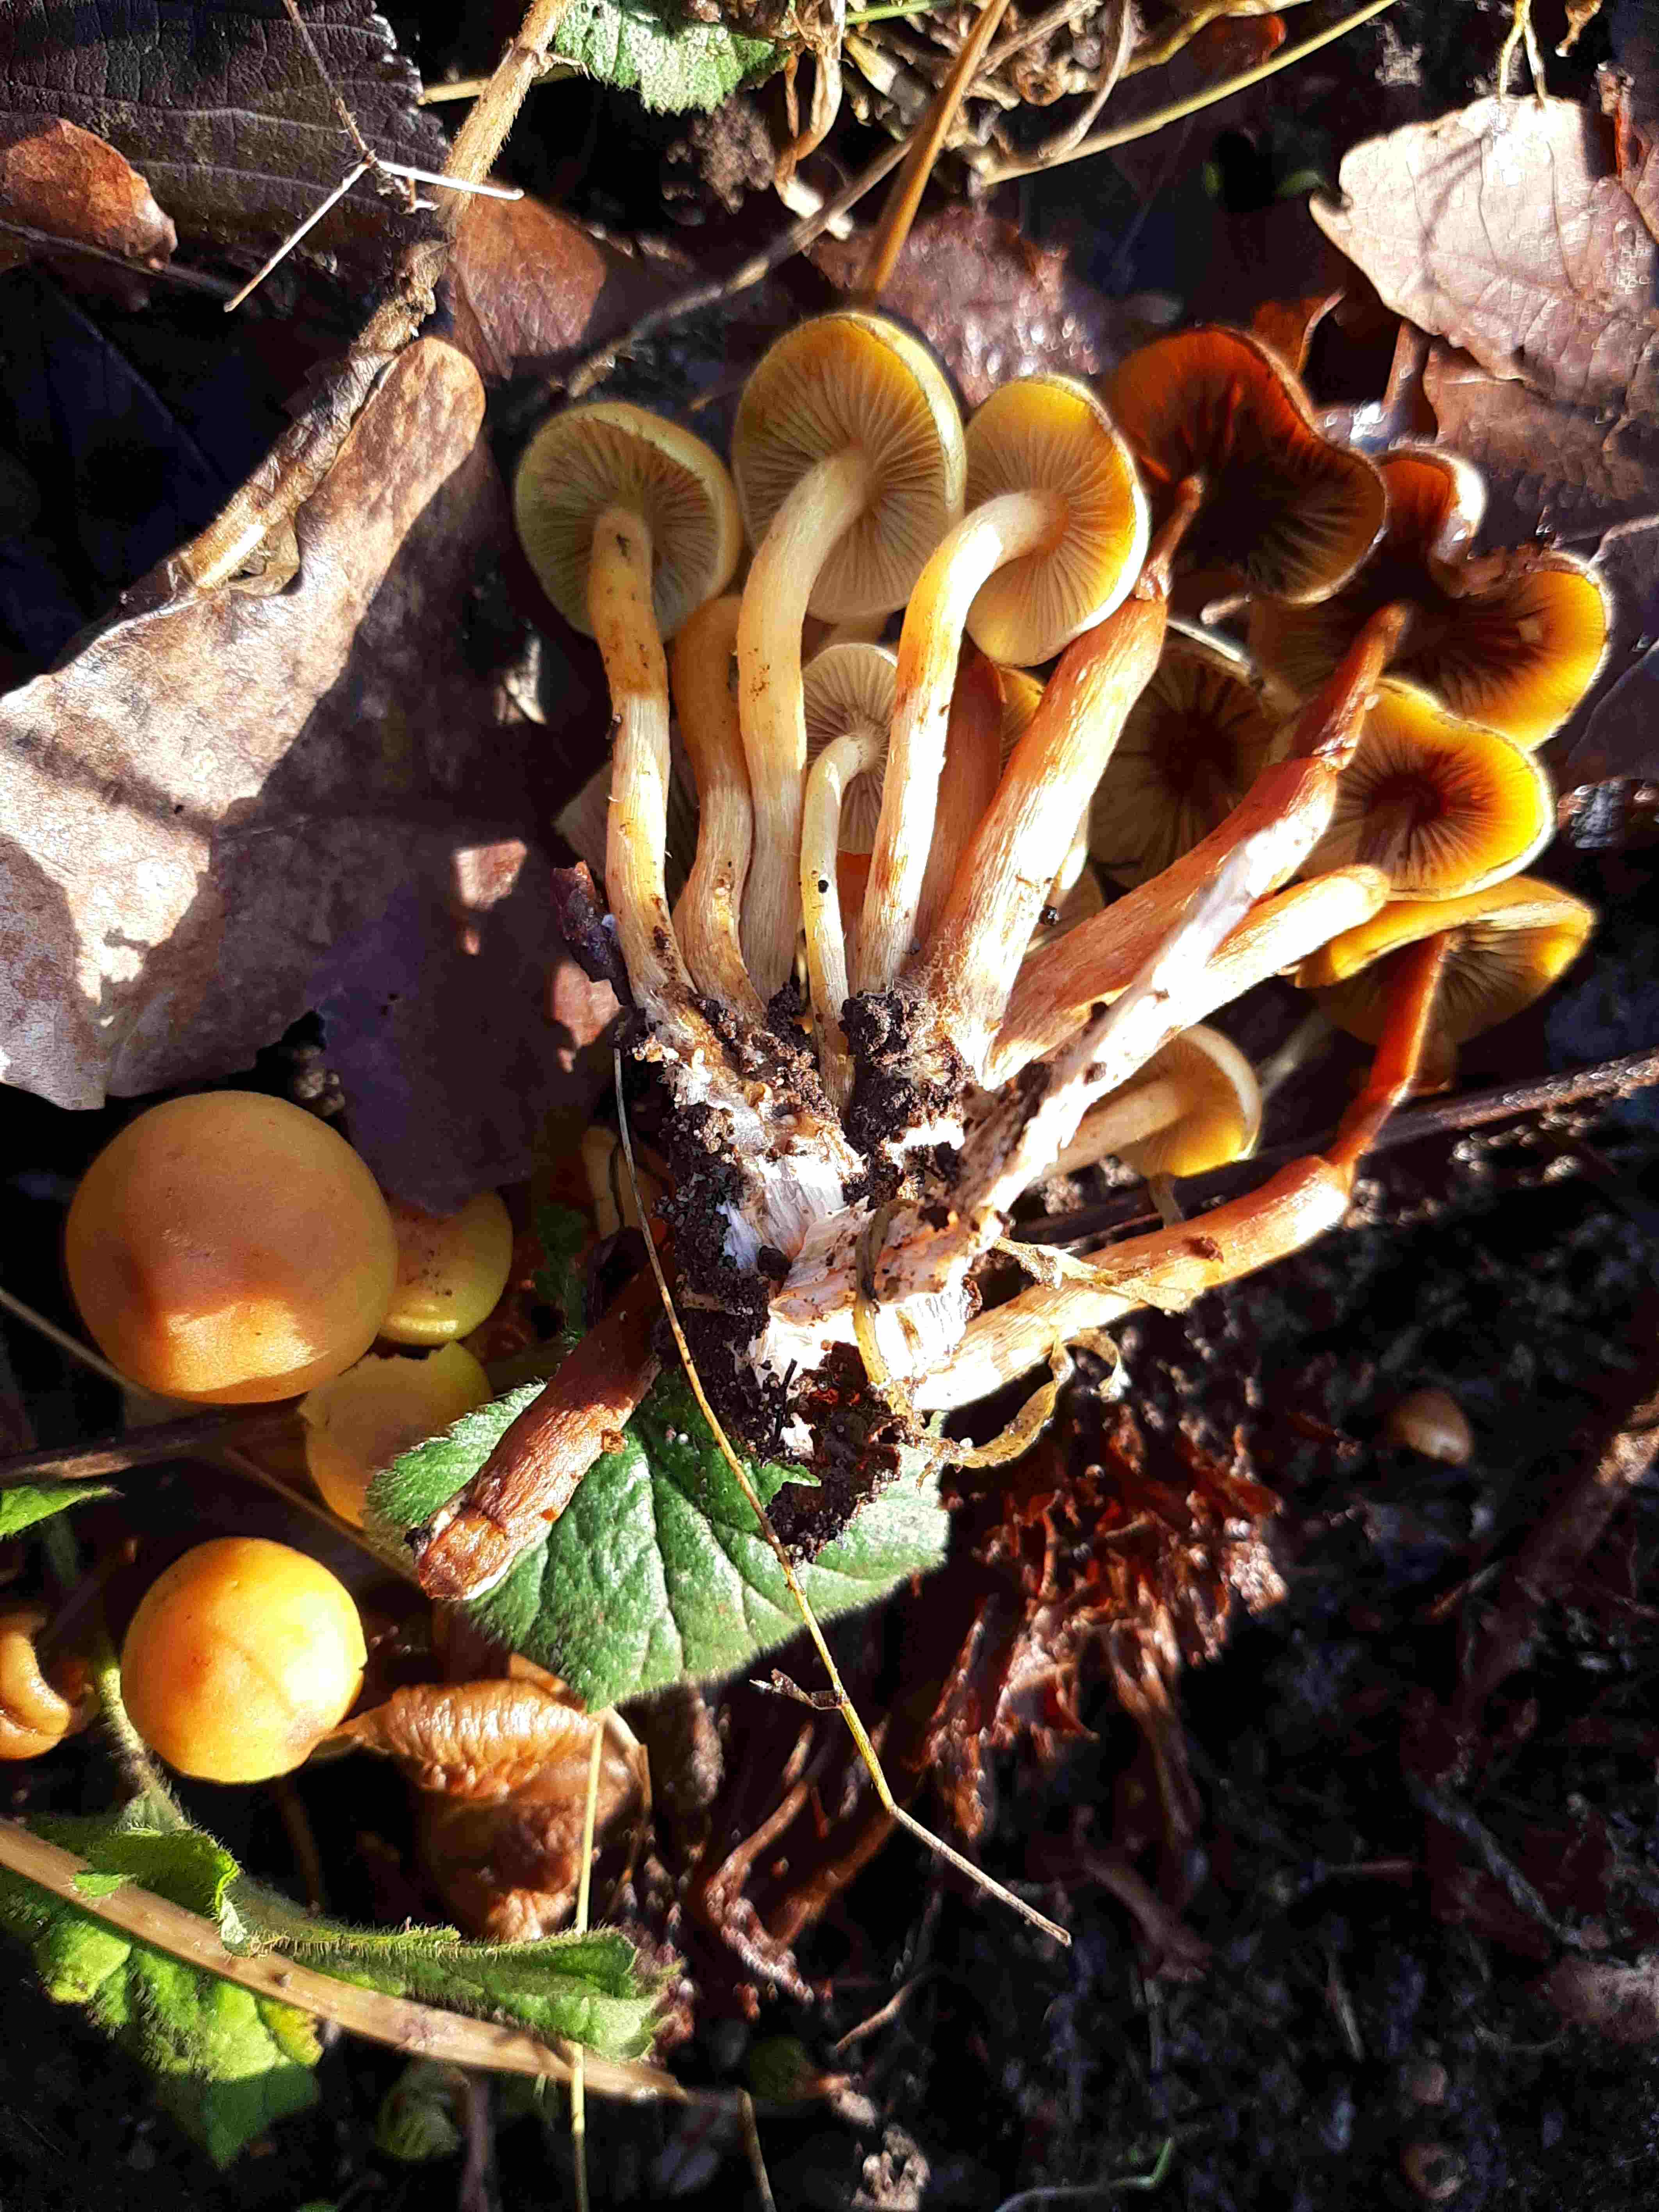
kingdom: Fungi
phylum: Basidiomycota
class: Agaricomycetes
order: Agaricales
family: Strophariaceae
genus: Hypholoma
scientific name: Hypholoma fasciculare
